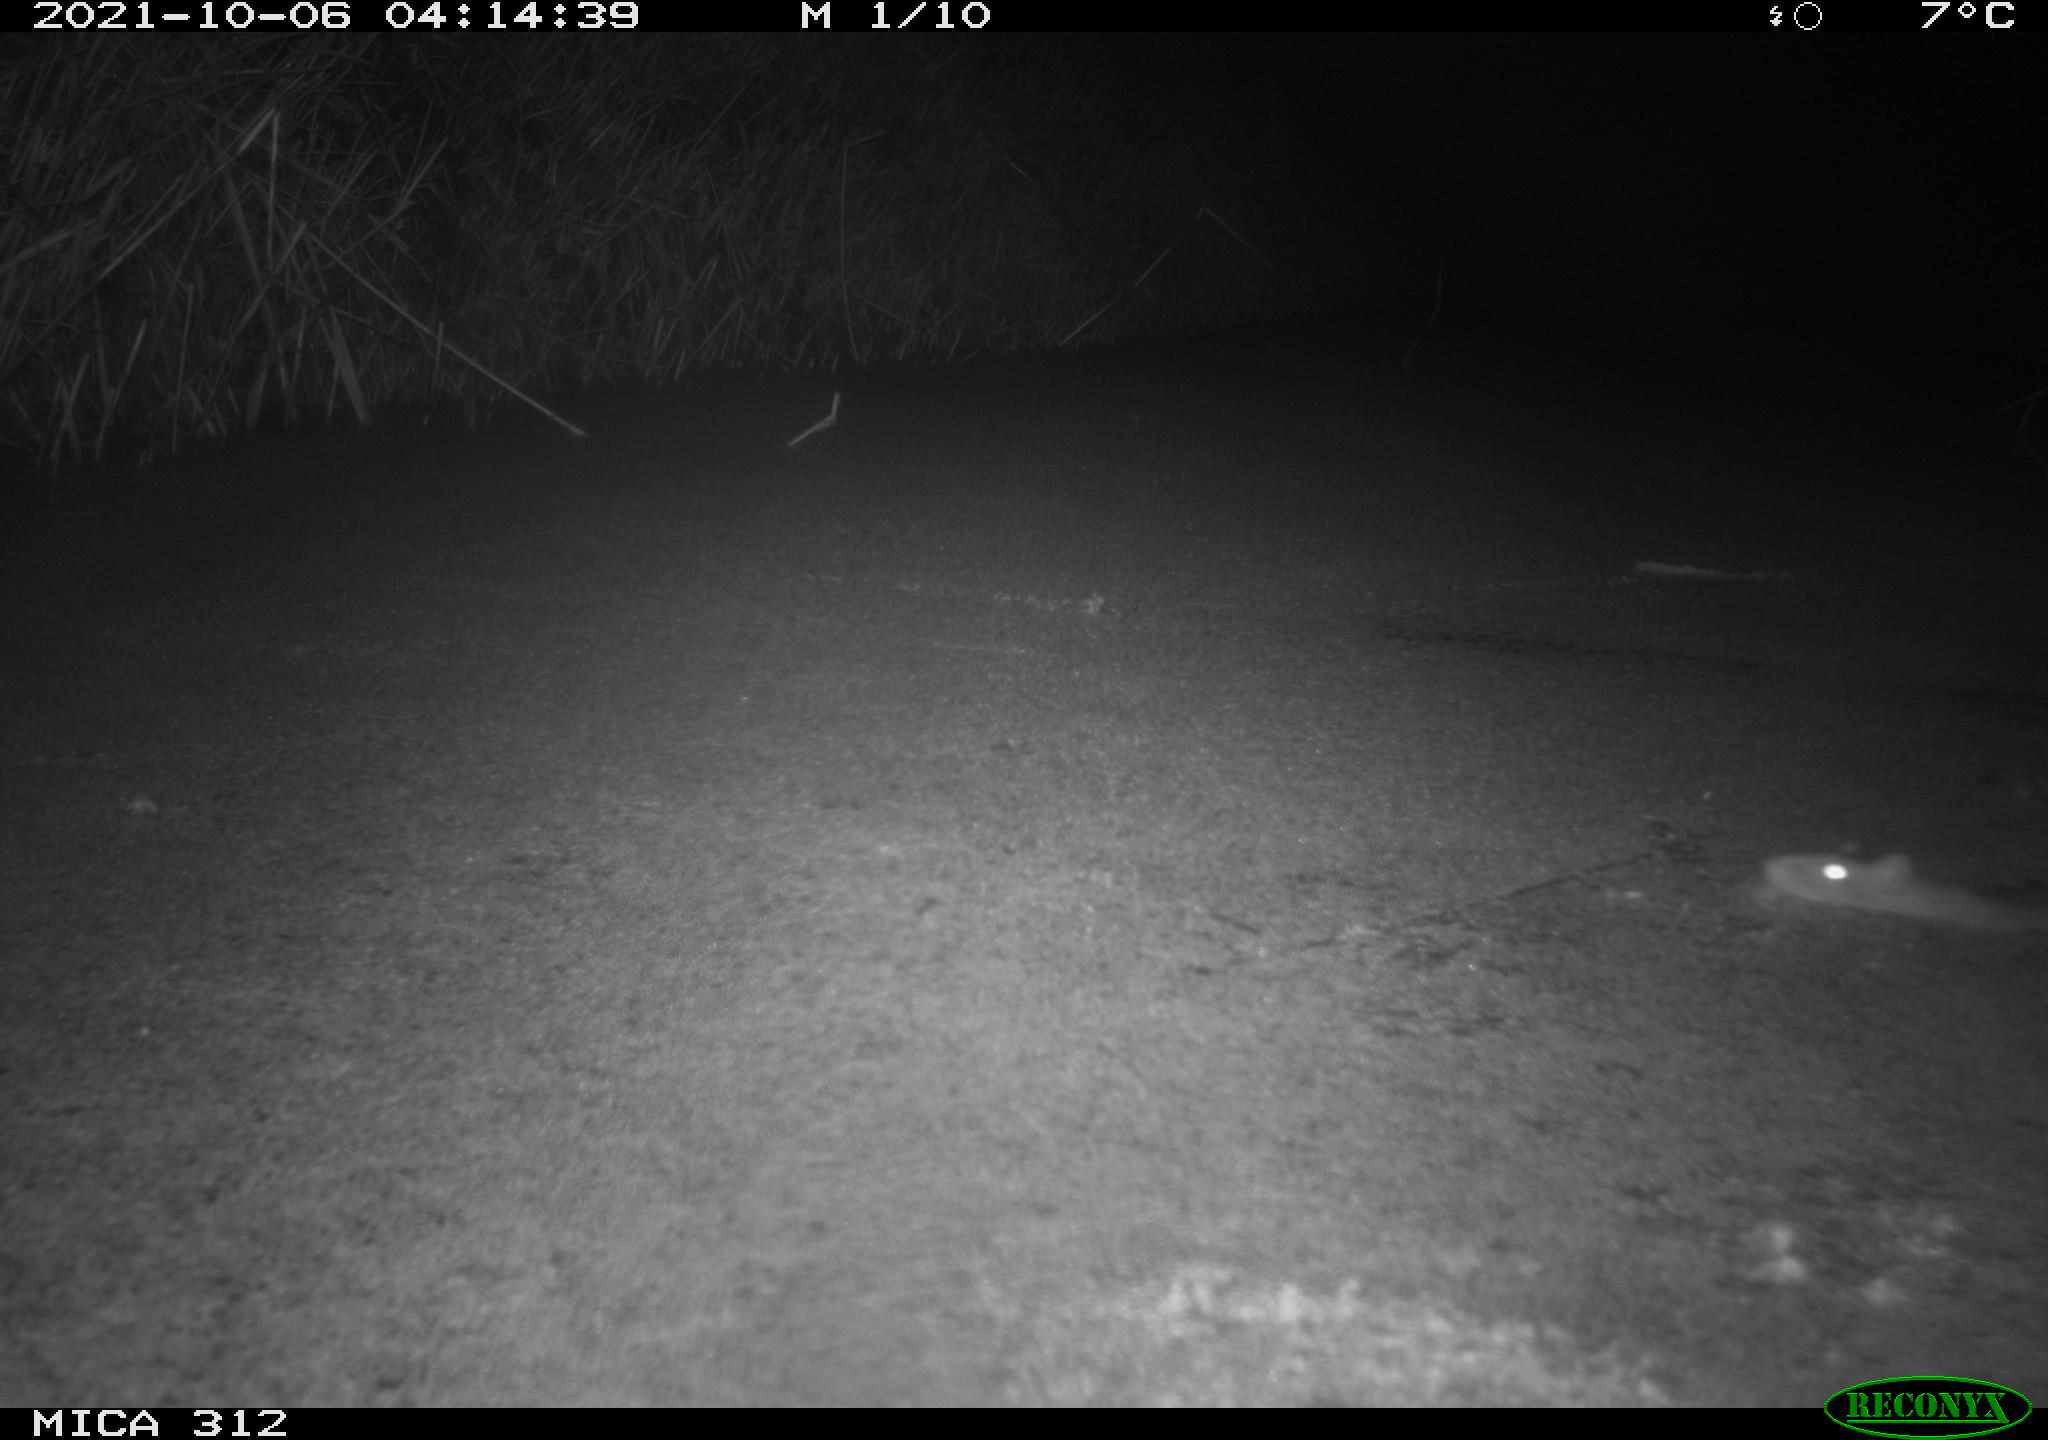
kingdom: Animalia
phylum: Chordata
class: Mammalia
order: Rodentia
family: Muridae
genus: Rattus
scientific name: Rattus norvegicus
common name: Brown rat
